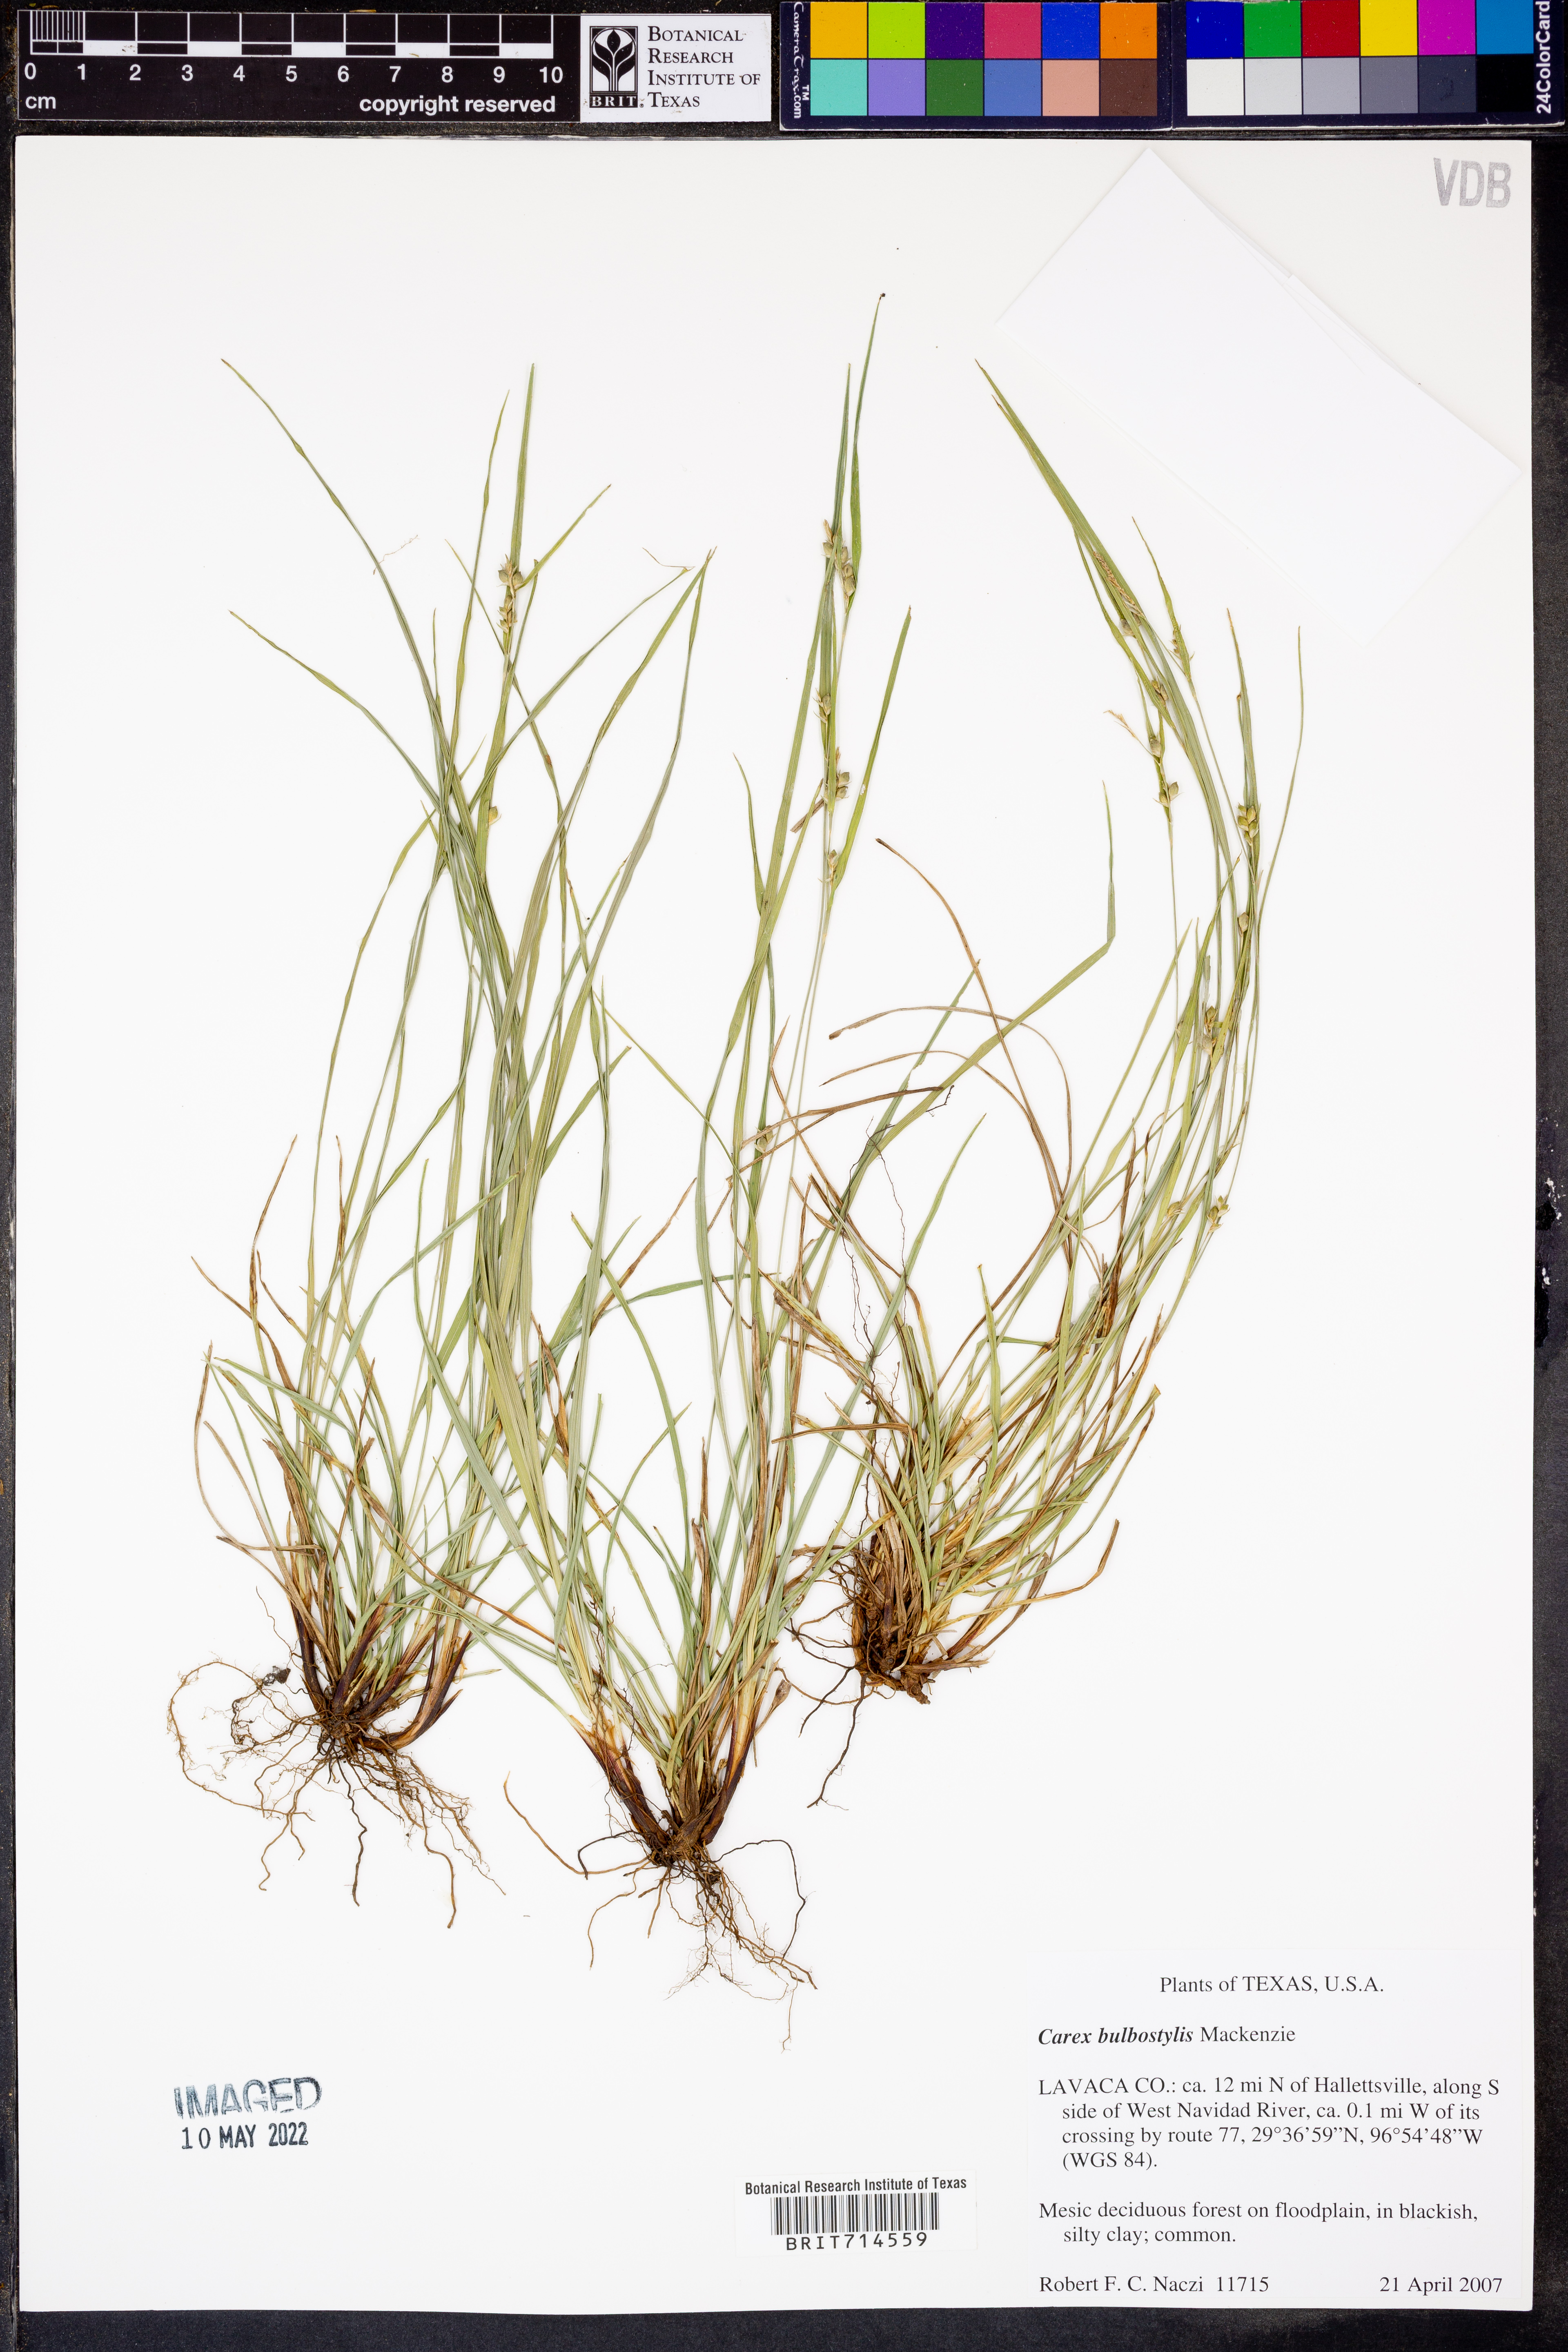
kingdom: Plantae
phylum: Tracheophyta
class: Liliopsida
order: Poales
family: Cyperaceae
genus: Carex
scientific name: Carex bulbostylis
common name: Eastern narrowleaf sedge
